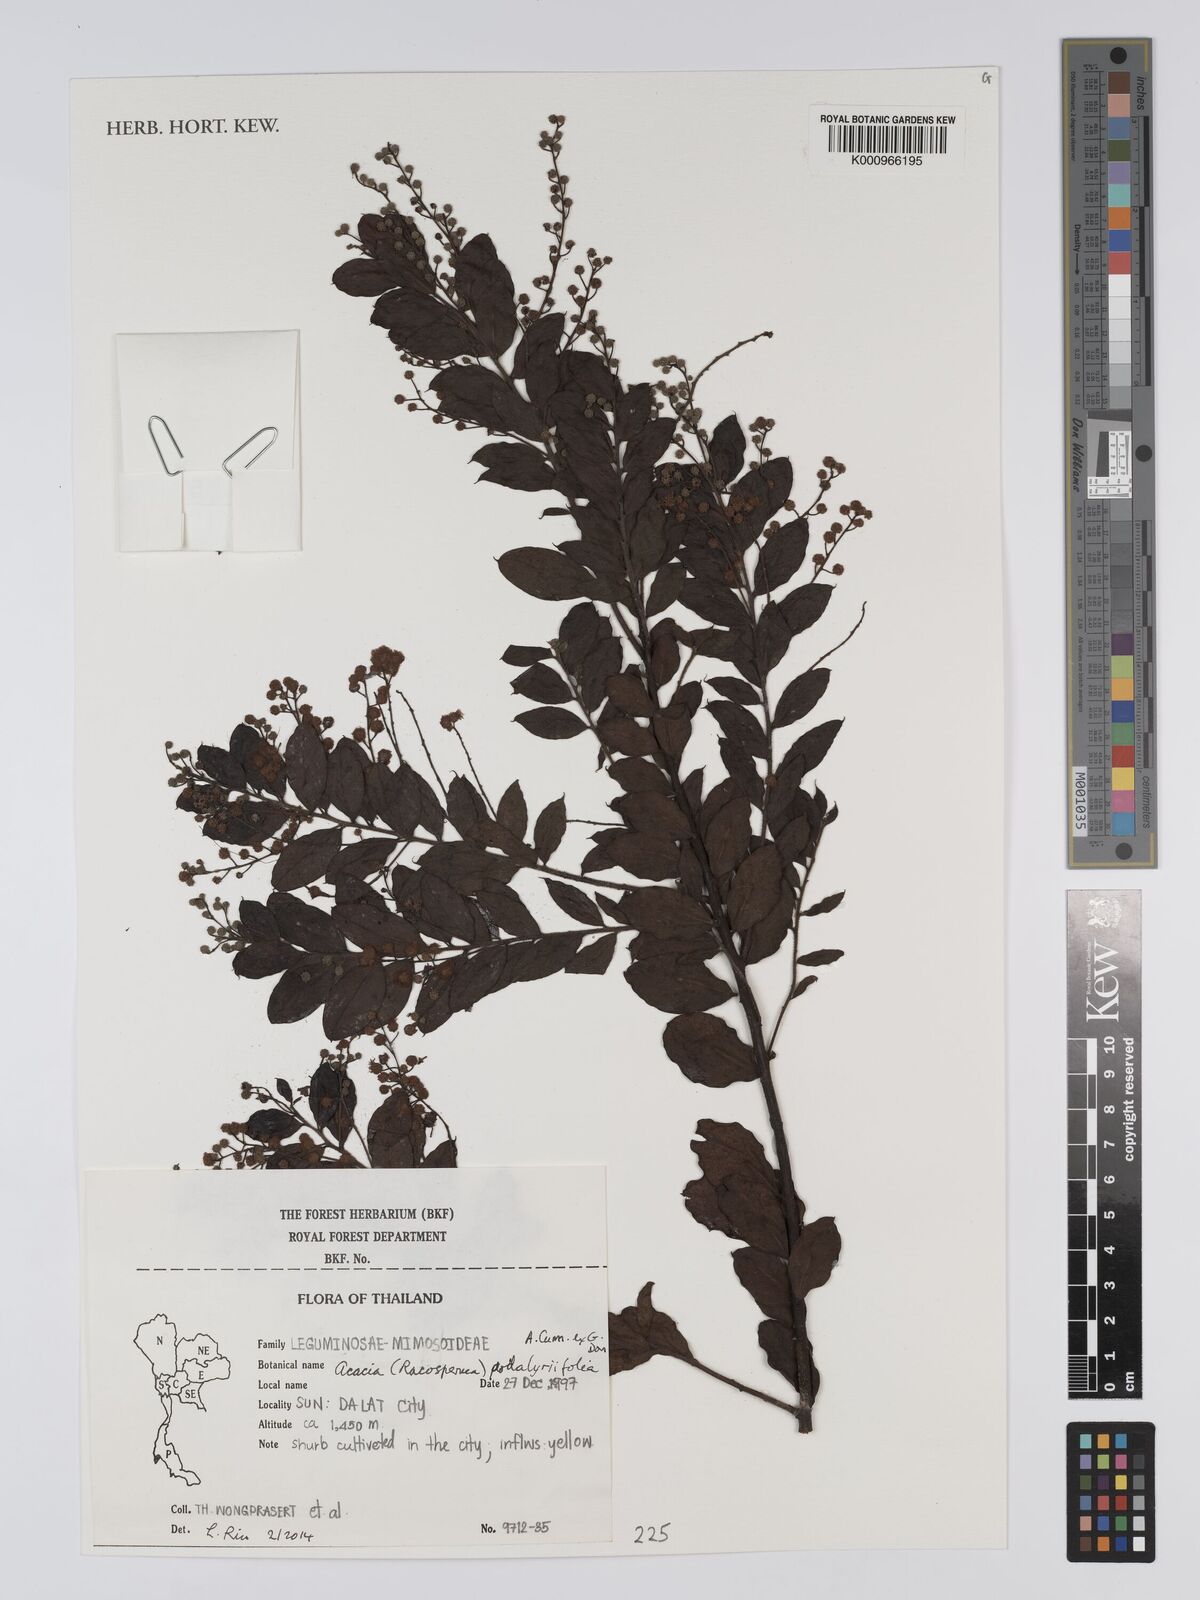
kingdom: Plantae
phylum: Tracheophyta
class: Magnoliopsida
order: Fabales
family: Fabaceae
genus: Acacia
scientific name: Acacia
